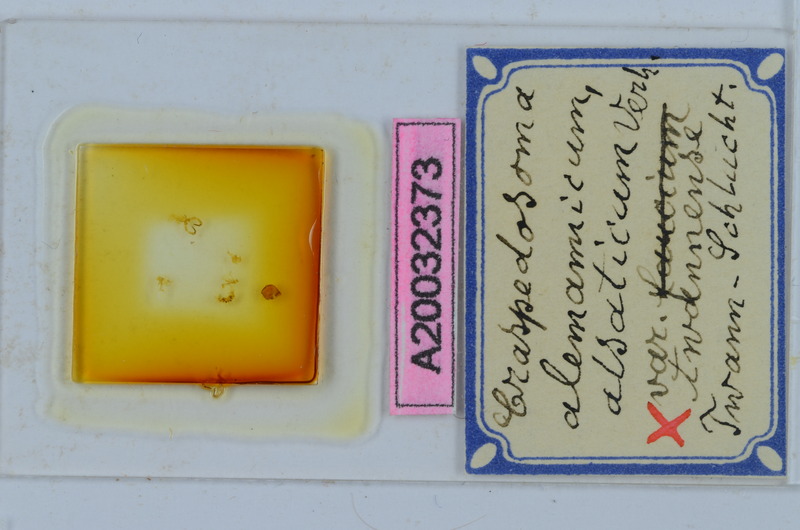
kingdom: Animalia
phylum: Arthropoda
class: Diplopoda
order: Chordeumatida
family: Craspedosomatidae
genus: Craspedosoma
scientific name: Craspedosoma rawlinsii
